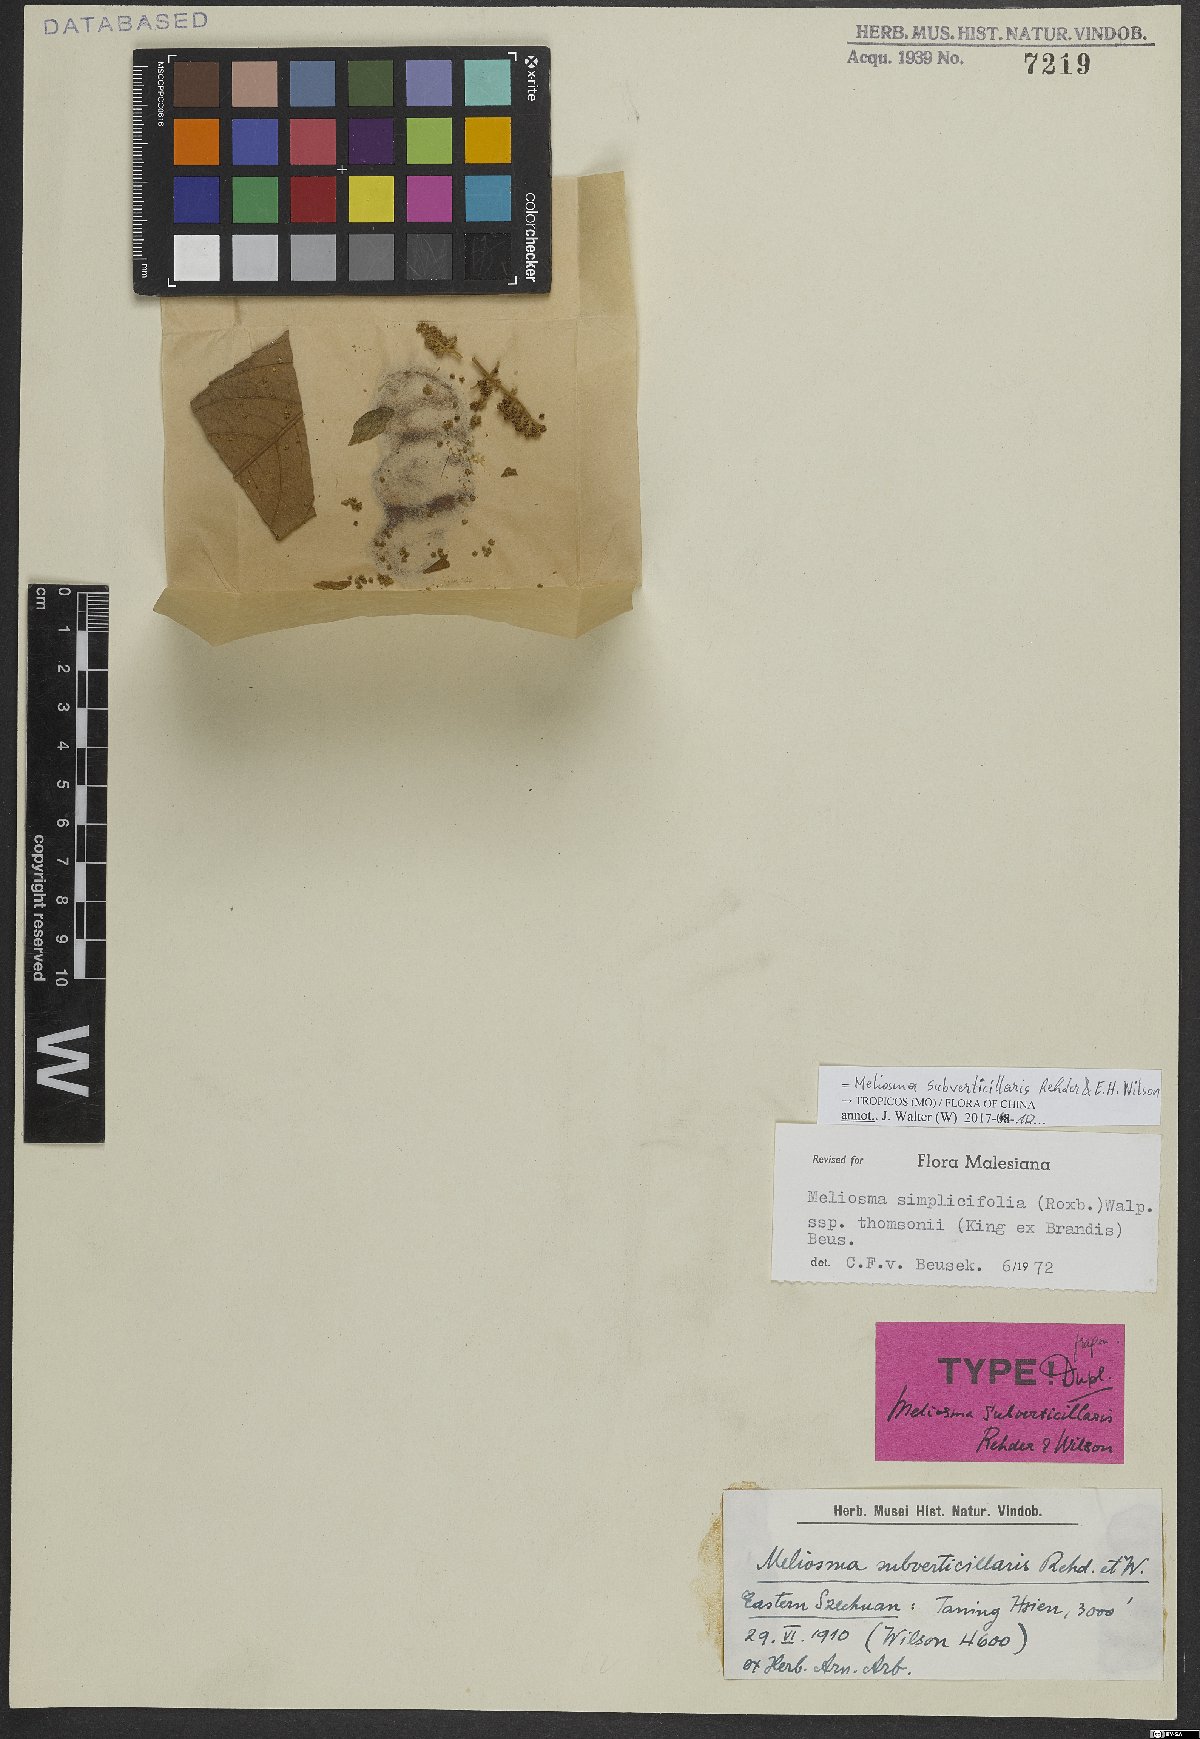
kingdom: Plantae
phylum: Tracheophyta
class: Magnoliopsida
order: Proteales
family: Sabiaceae
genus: Meliosma
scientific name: Meliosma thomsonii
